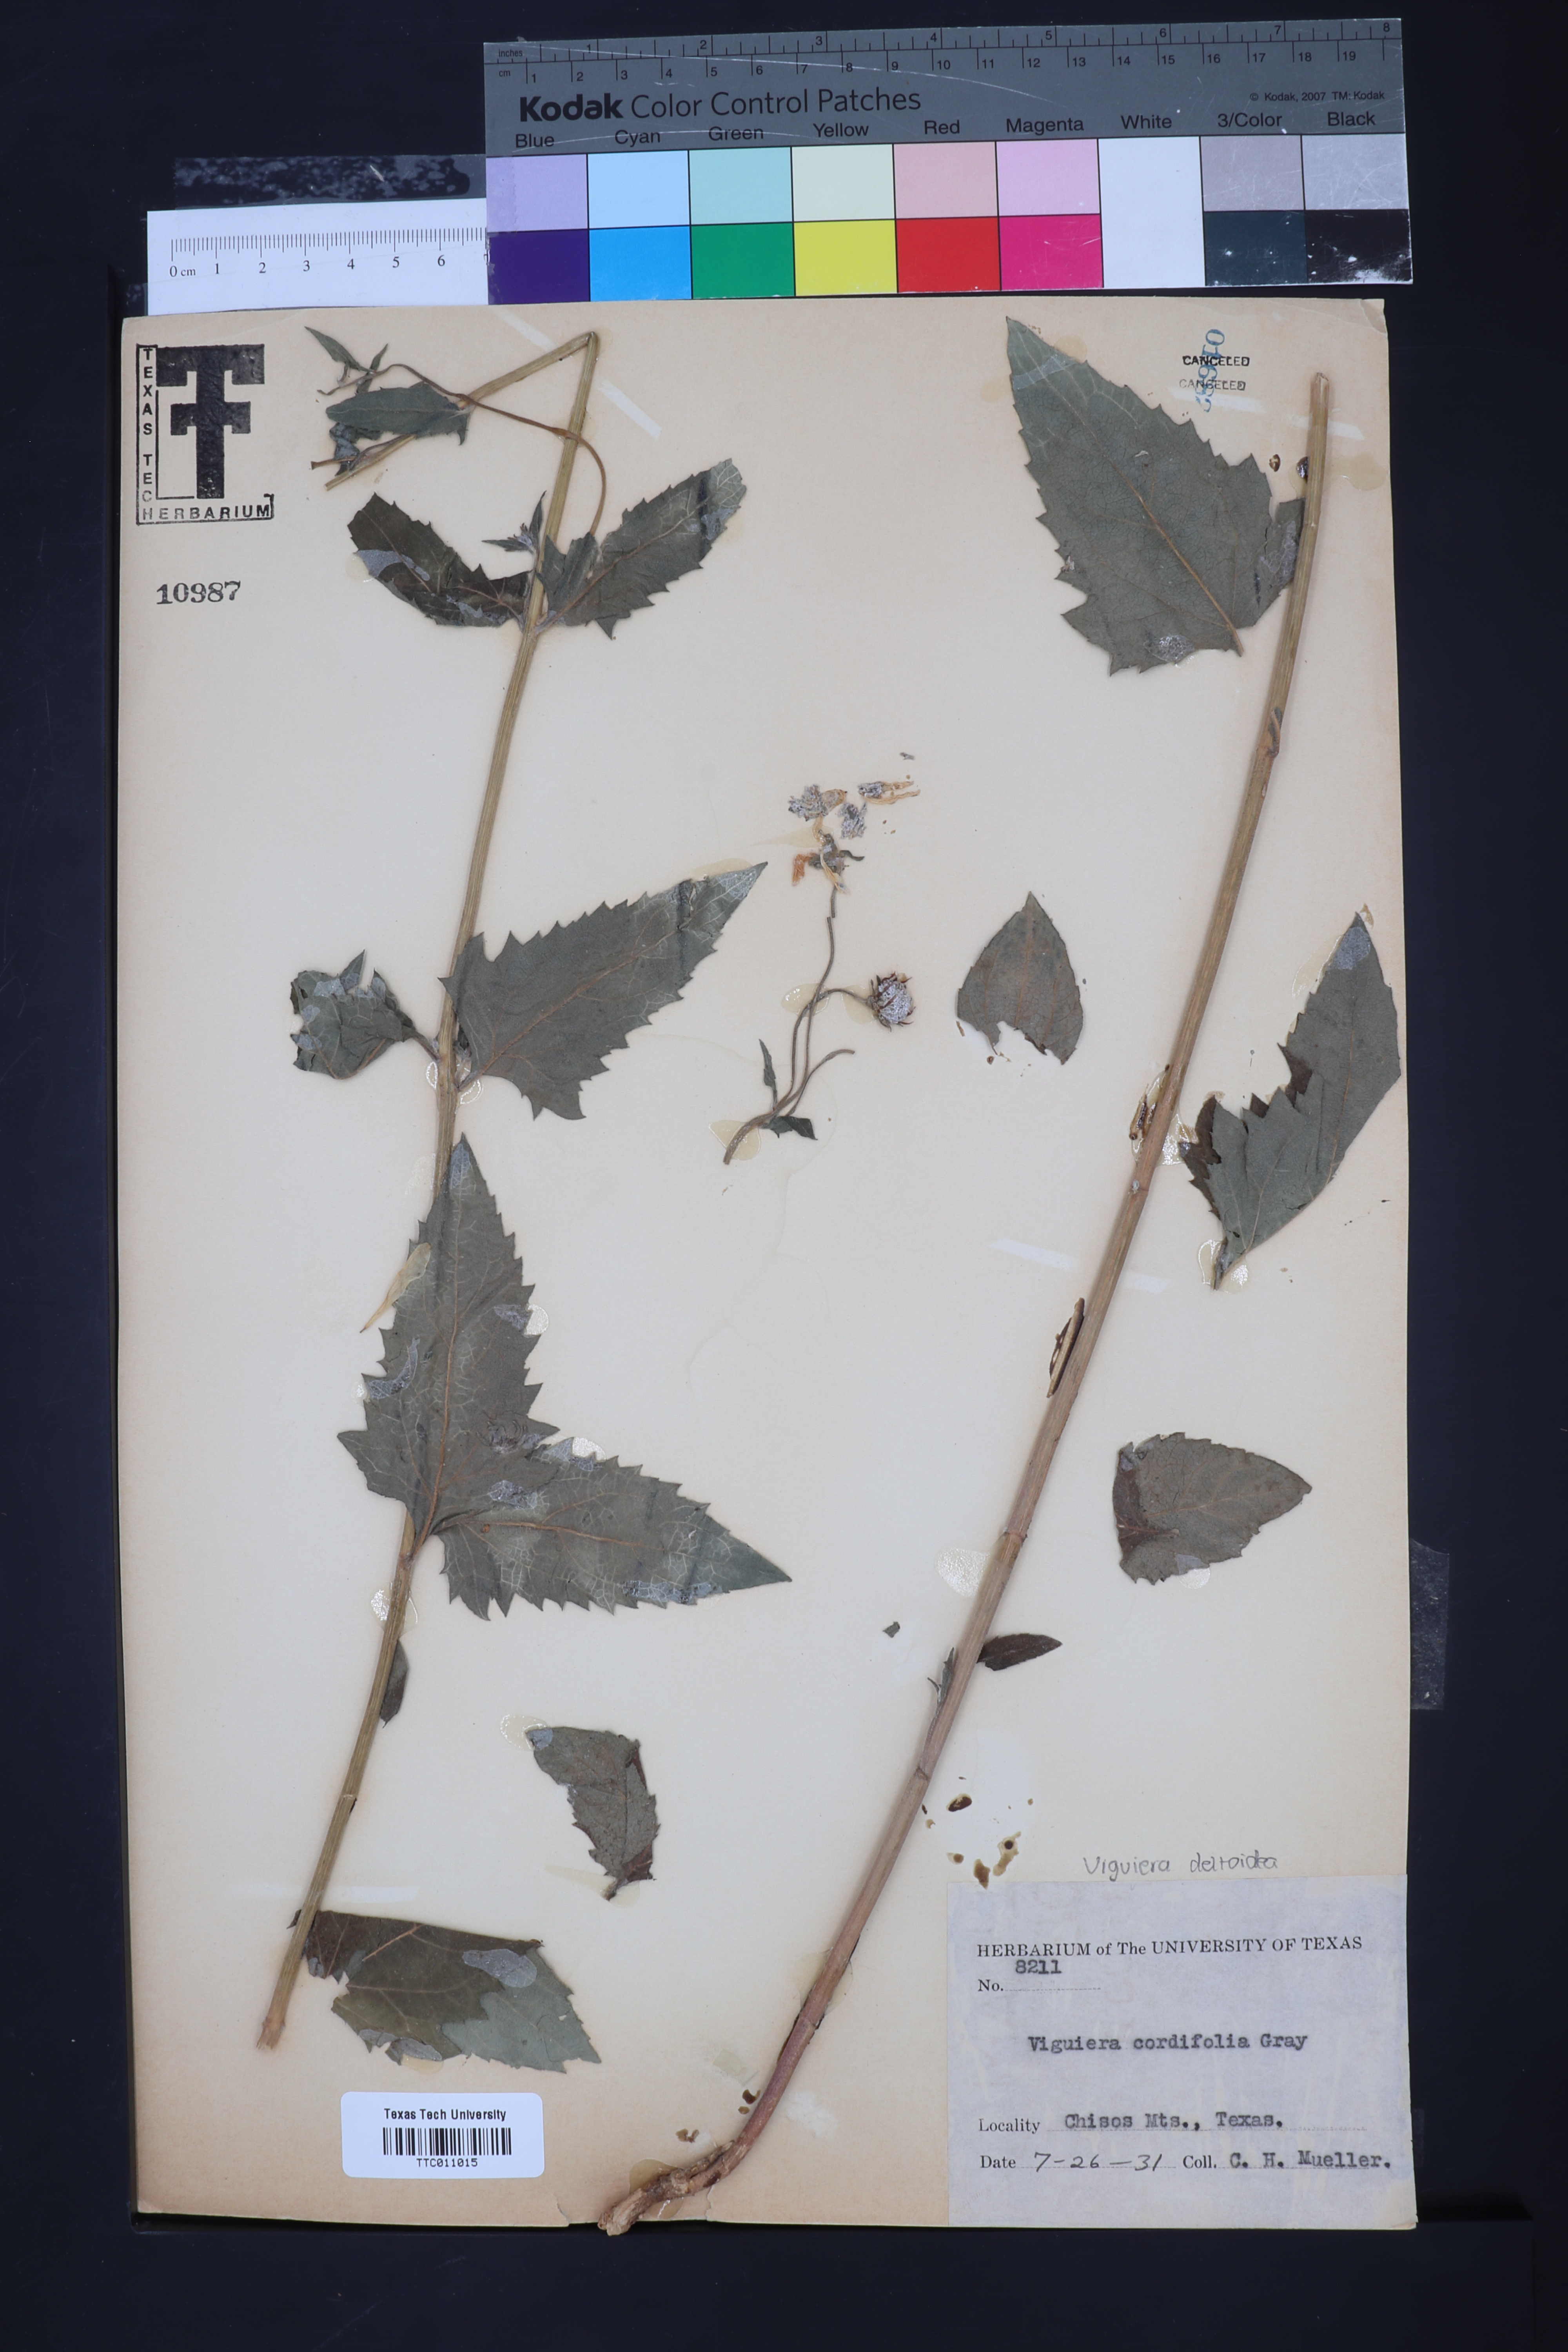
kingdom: Plantae
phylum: Tracheophyta
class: Magnoliopsida
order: Asterales
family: Asteraceae
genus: Aldama
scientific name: Aldama cordifolia
